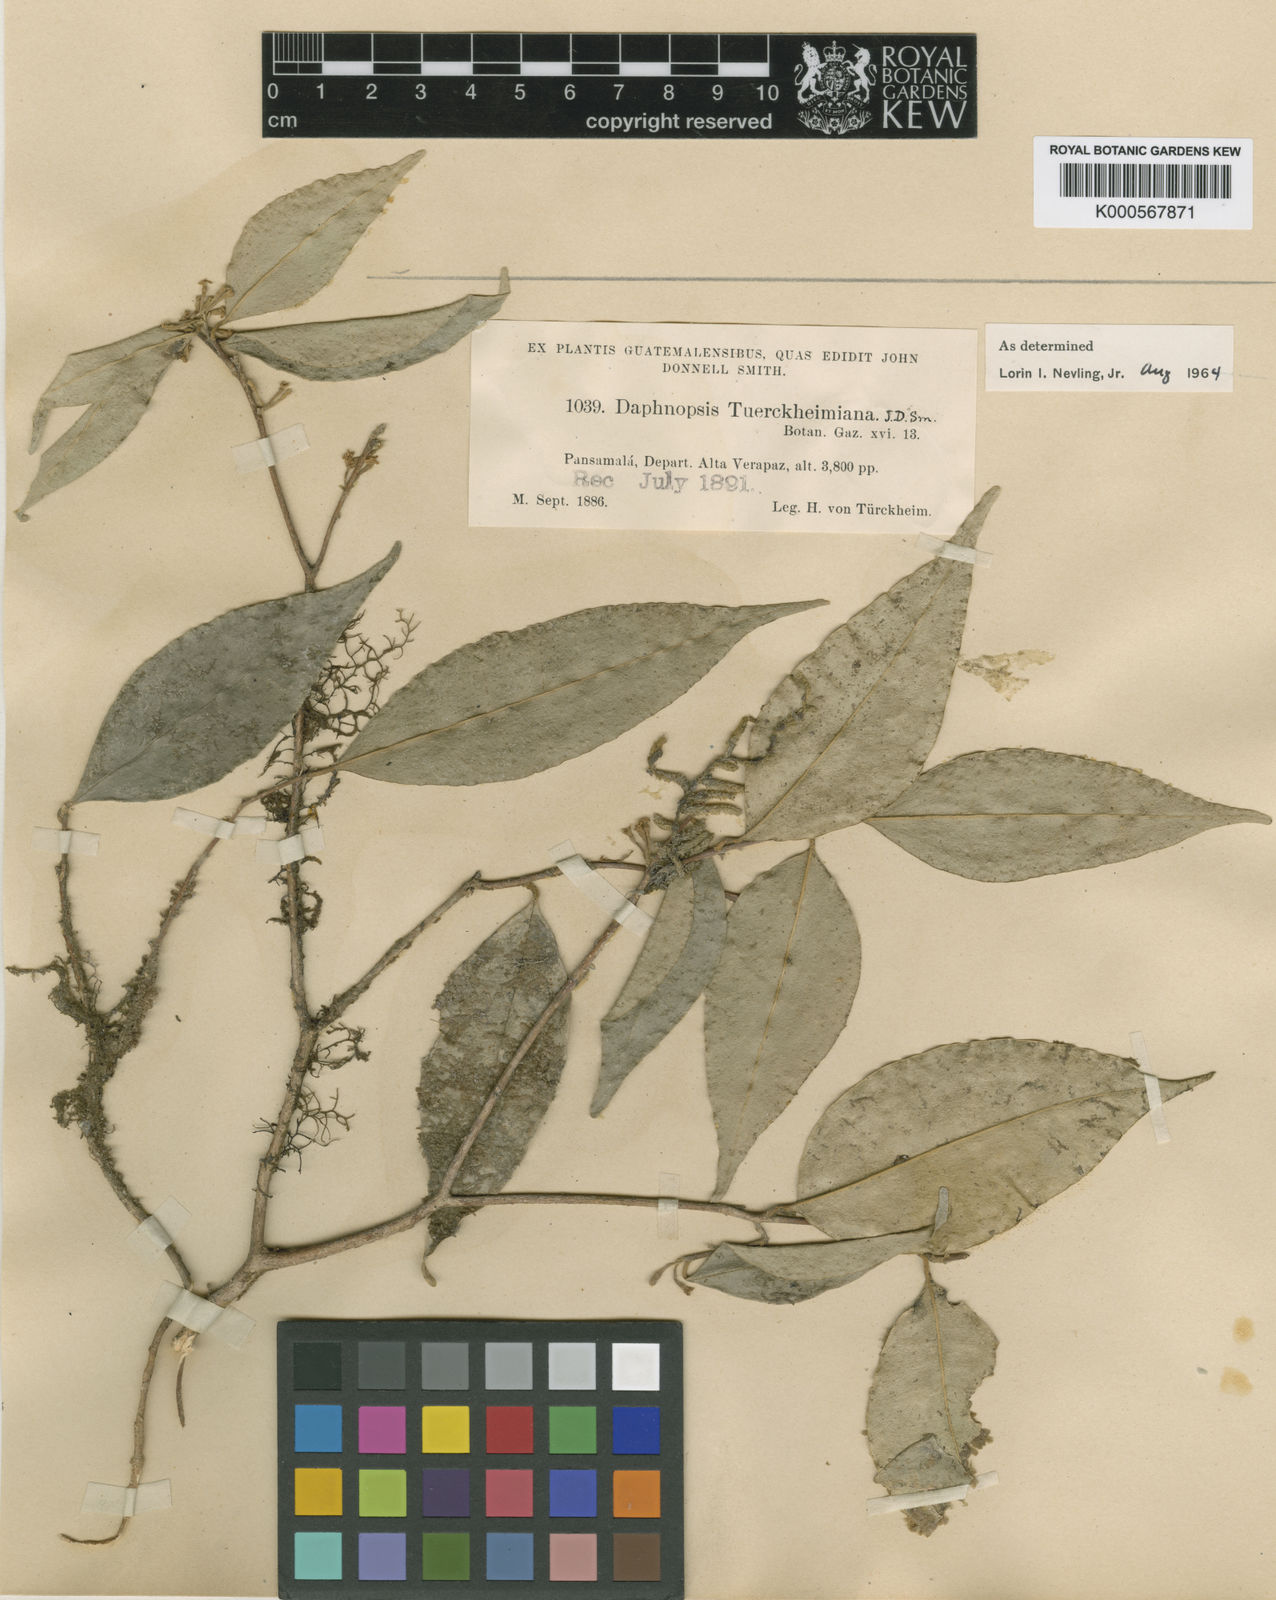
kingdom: Plantae
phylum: Tracheophyta
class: Magnoliopsida
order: Malvales
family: Thymelaeaceae
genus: Daphnopsis
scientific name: Daphnopsis tuerckheimiana
